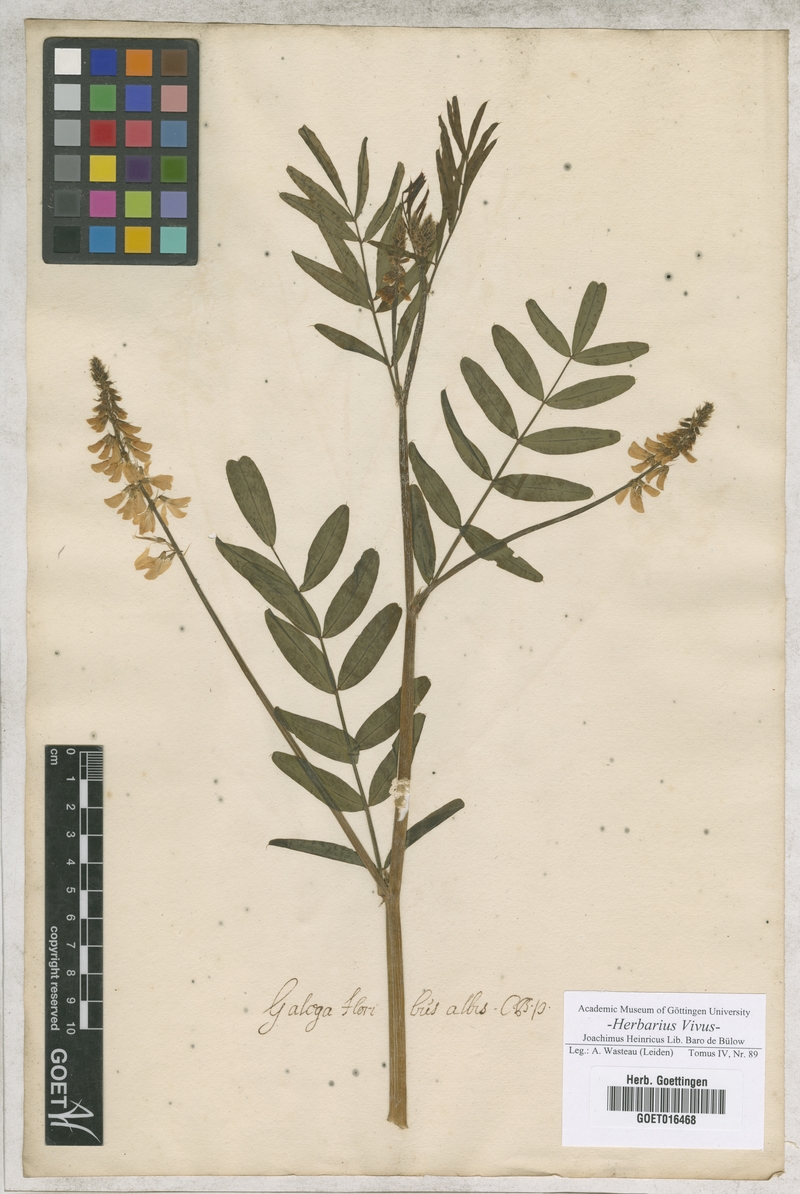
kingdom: Plantae
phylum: Tracheophyta
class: Magnoliopsida
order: Fabales
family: Fabaceae
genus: Galega
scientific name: Galega officinalis
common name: Goat's-rue
